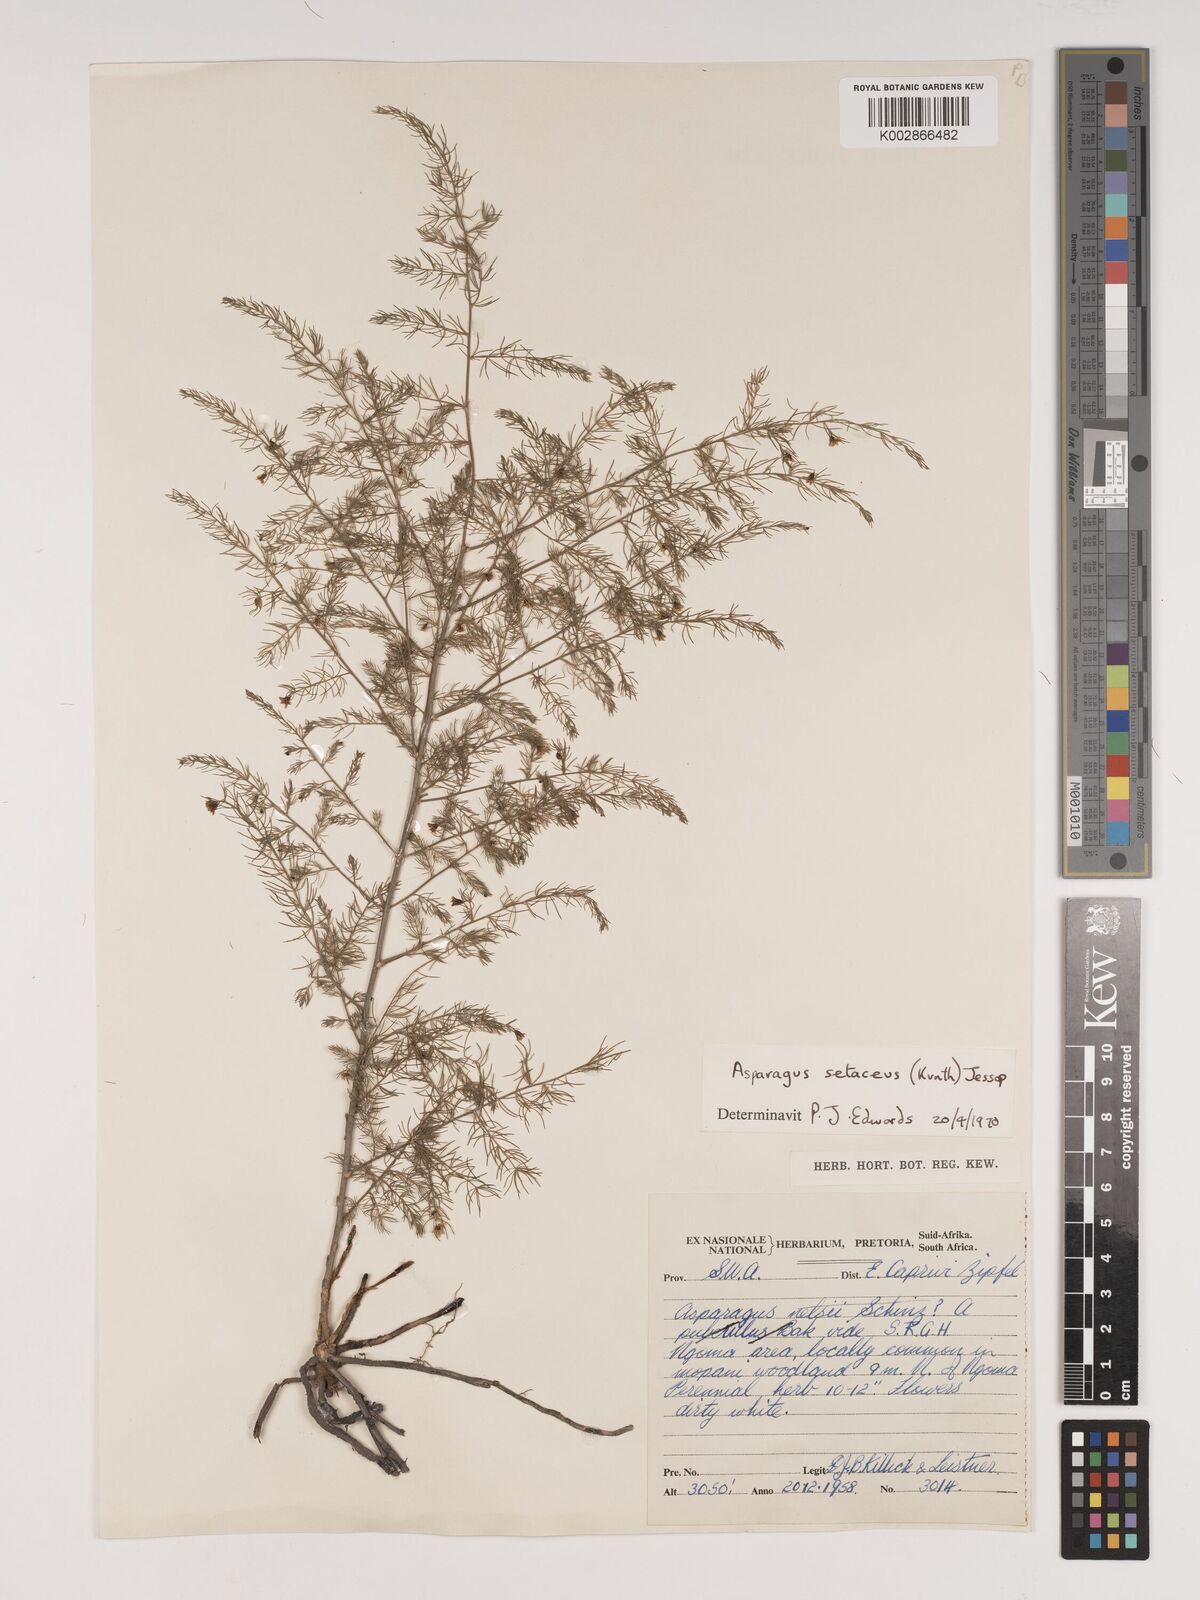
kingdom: Plantae
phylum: Tracheophyta
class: Liliopsida
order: Asparagales
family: Asparagaceae
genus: Asparagus
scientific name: Asparagus setaceus
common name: Common asparagus fern
